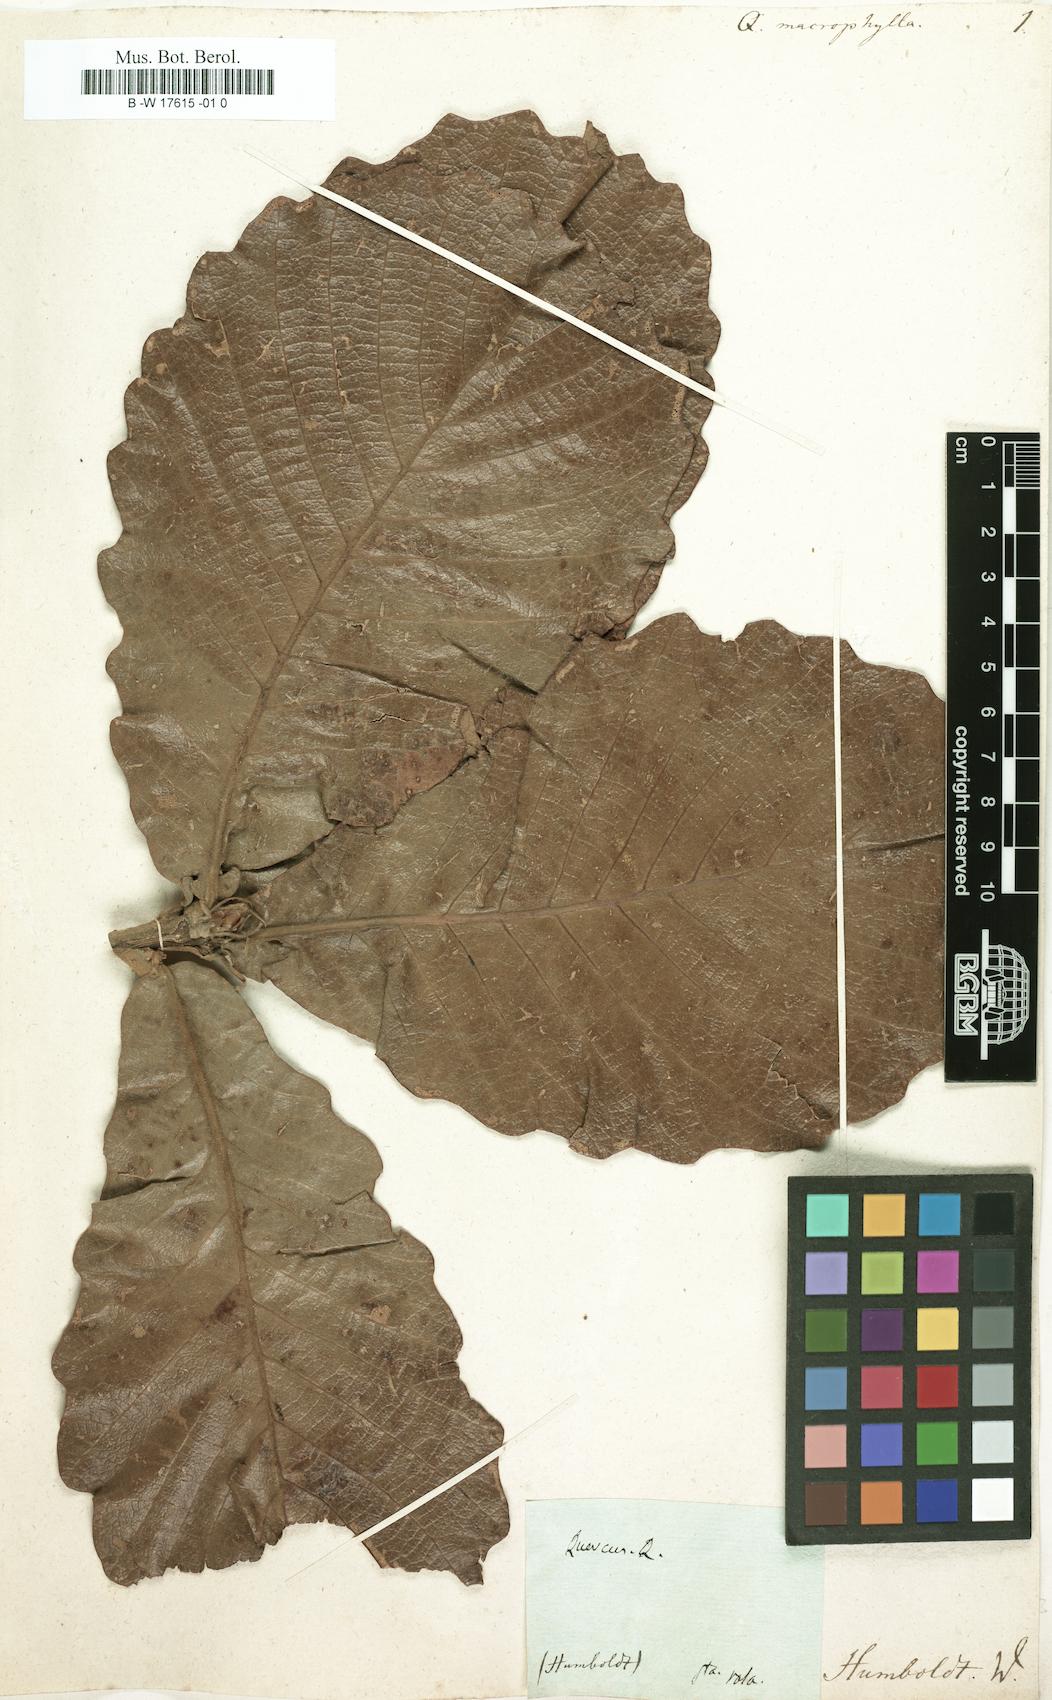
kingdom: Plantae
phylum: Tracheophyta
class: Magnoliopsida
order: Fagales
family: Fagaceae
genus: Quercus
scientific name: Quercus magnoliifolia
